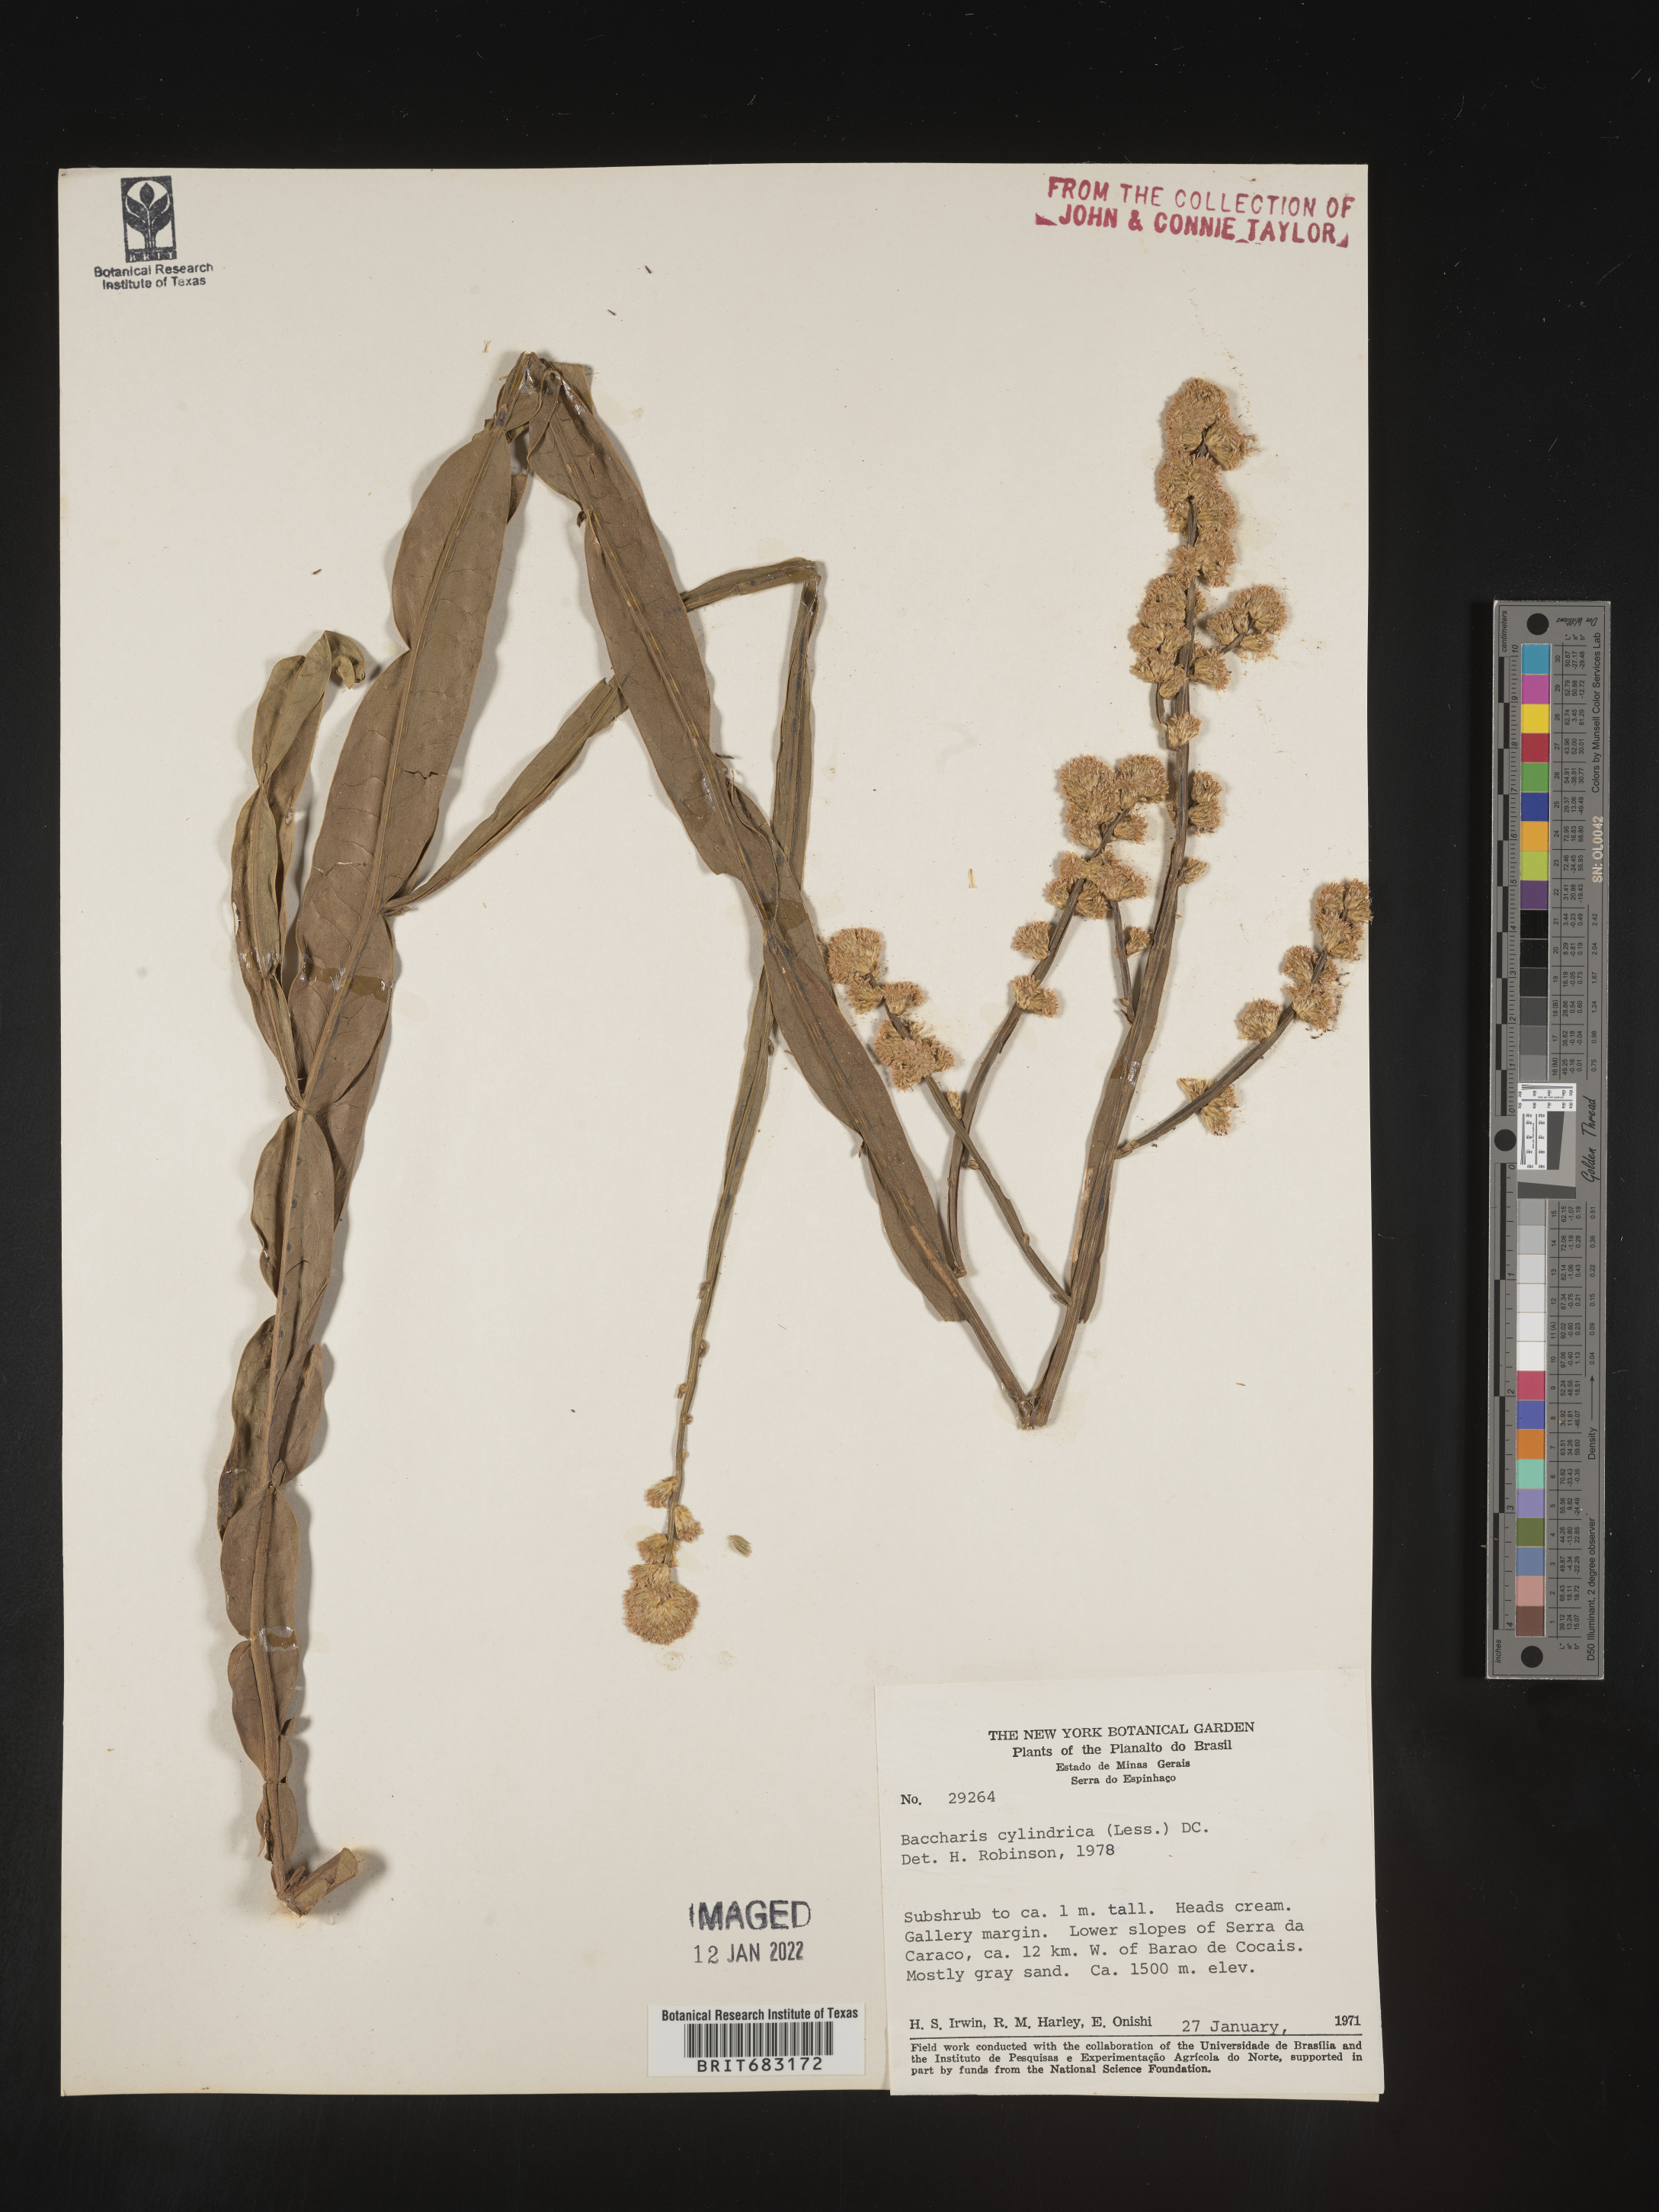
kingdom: Plantae
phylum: Tracheophyta
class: Magnoliopsida
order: Asterales
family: Asteraceae
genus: Baccharis
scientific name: Baccharis
